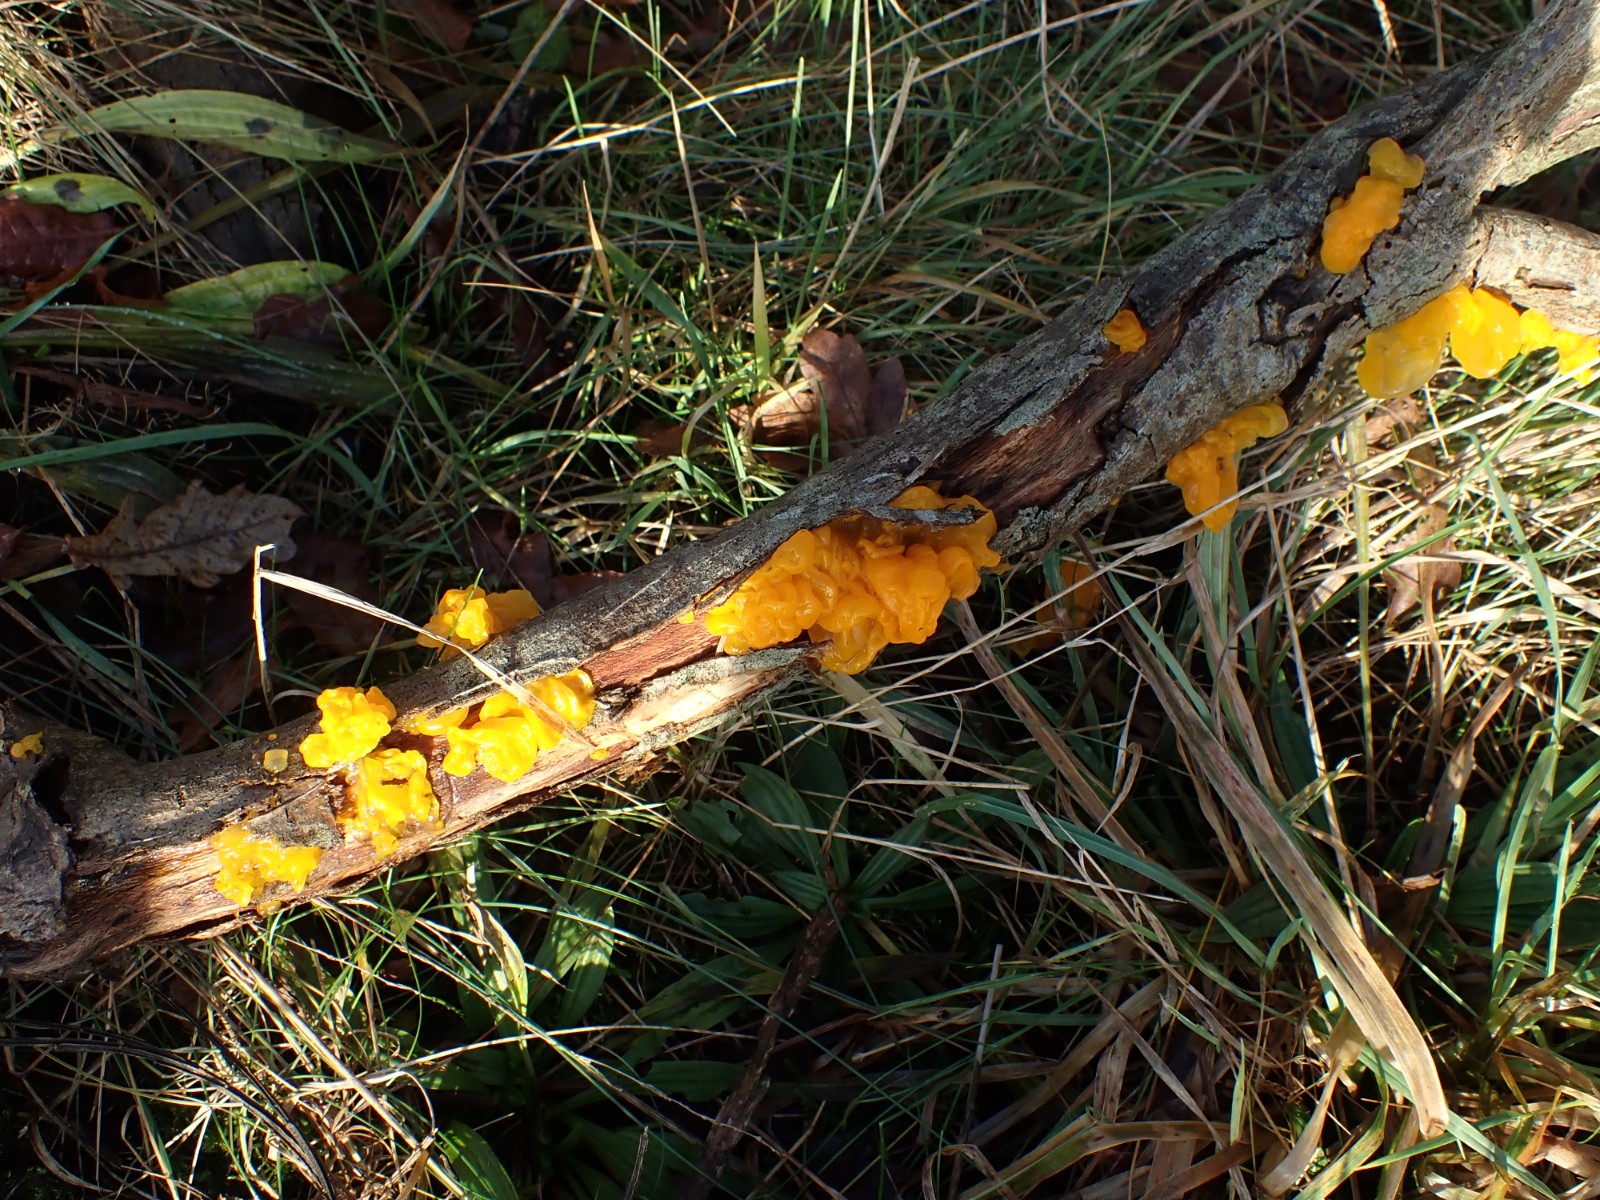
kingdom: Fungi
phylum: Basidiomycota
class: Tremellomycetes
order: Tremellales
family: Tremellaceae
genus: Tremella
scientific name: Tremella mesenterica
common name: gul bævresvamp
